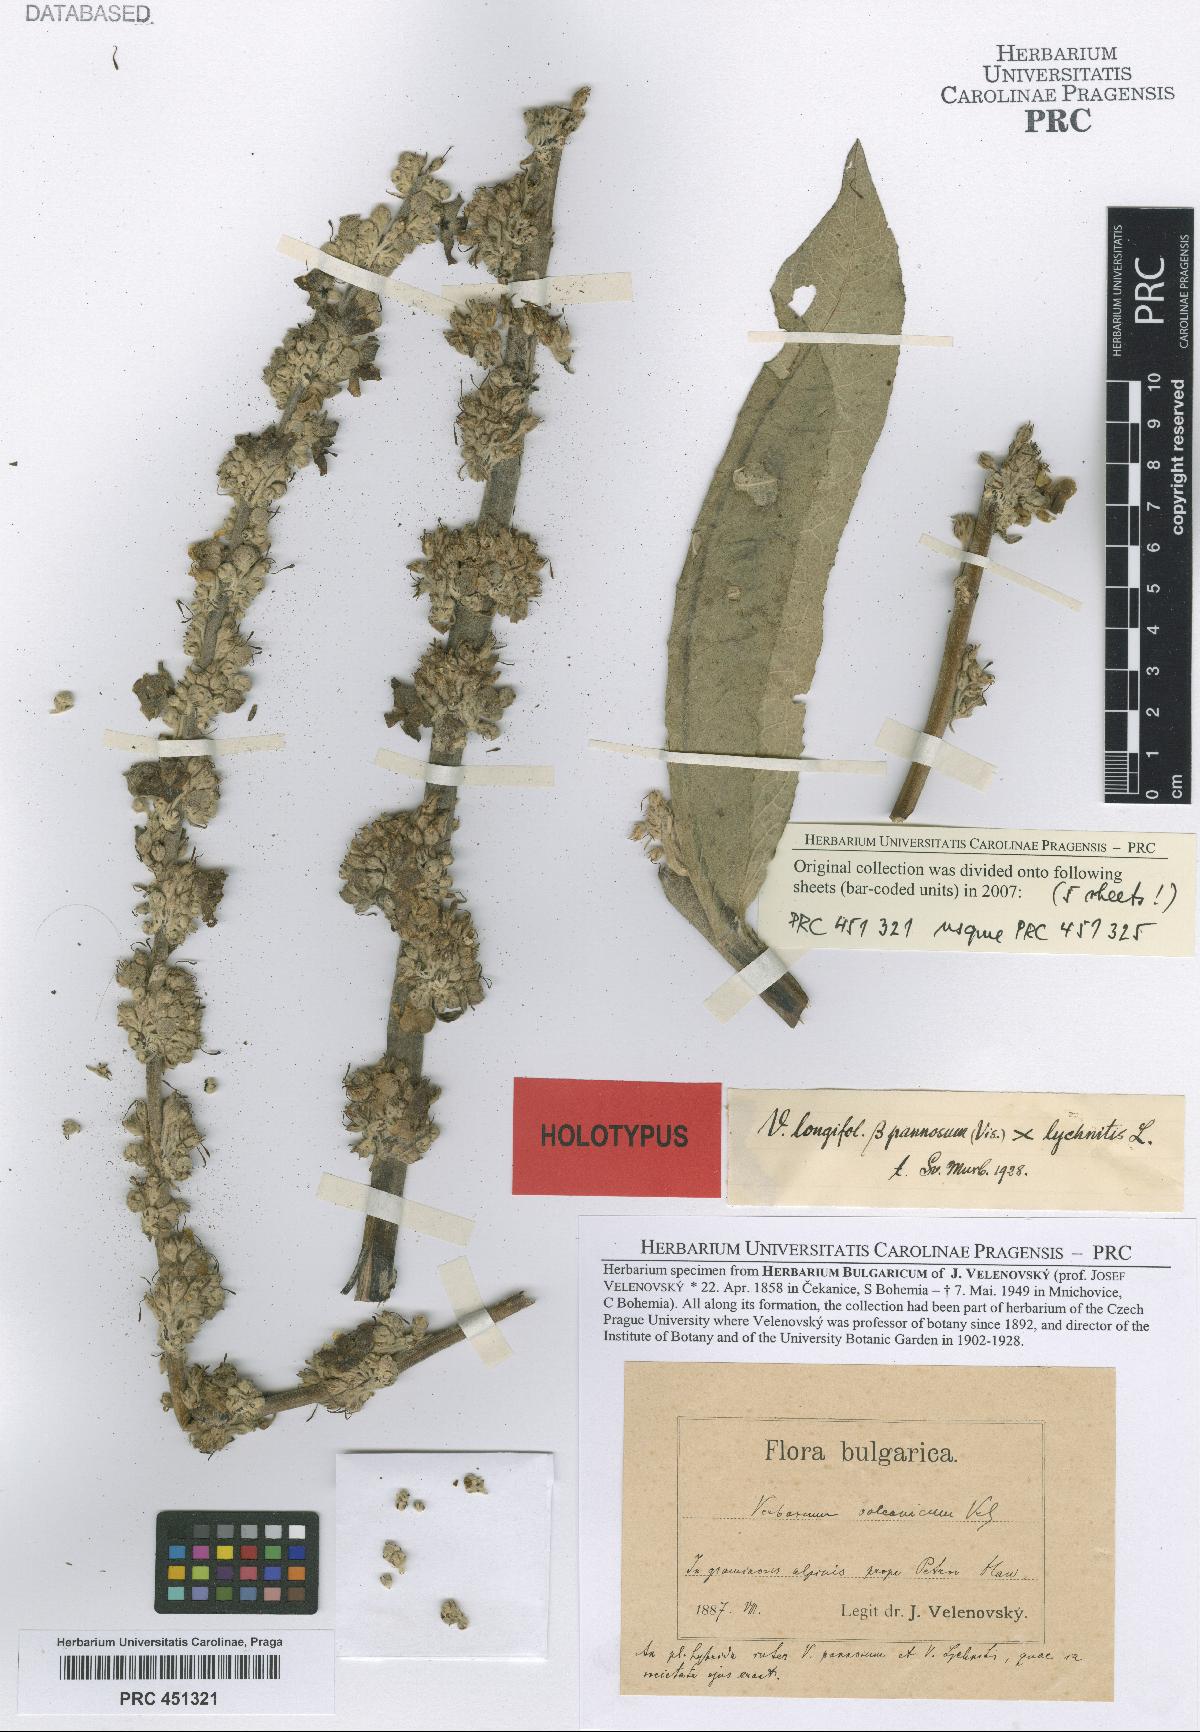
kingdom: Plantae
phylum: Tracheophyta
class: Magnoliopsida
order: Lamiales
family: Scrophulariaceae
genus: Verbascum
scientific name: Verbascum balcanicum
